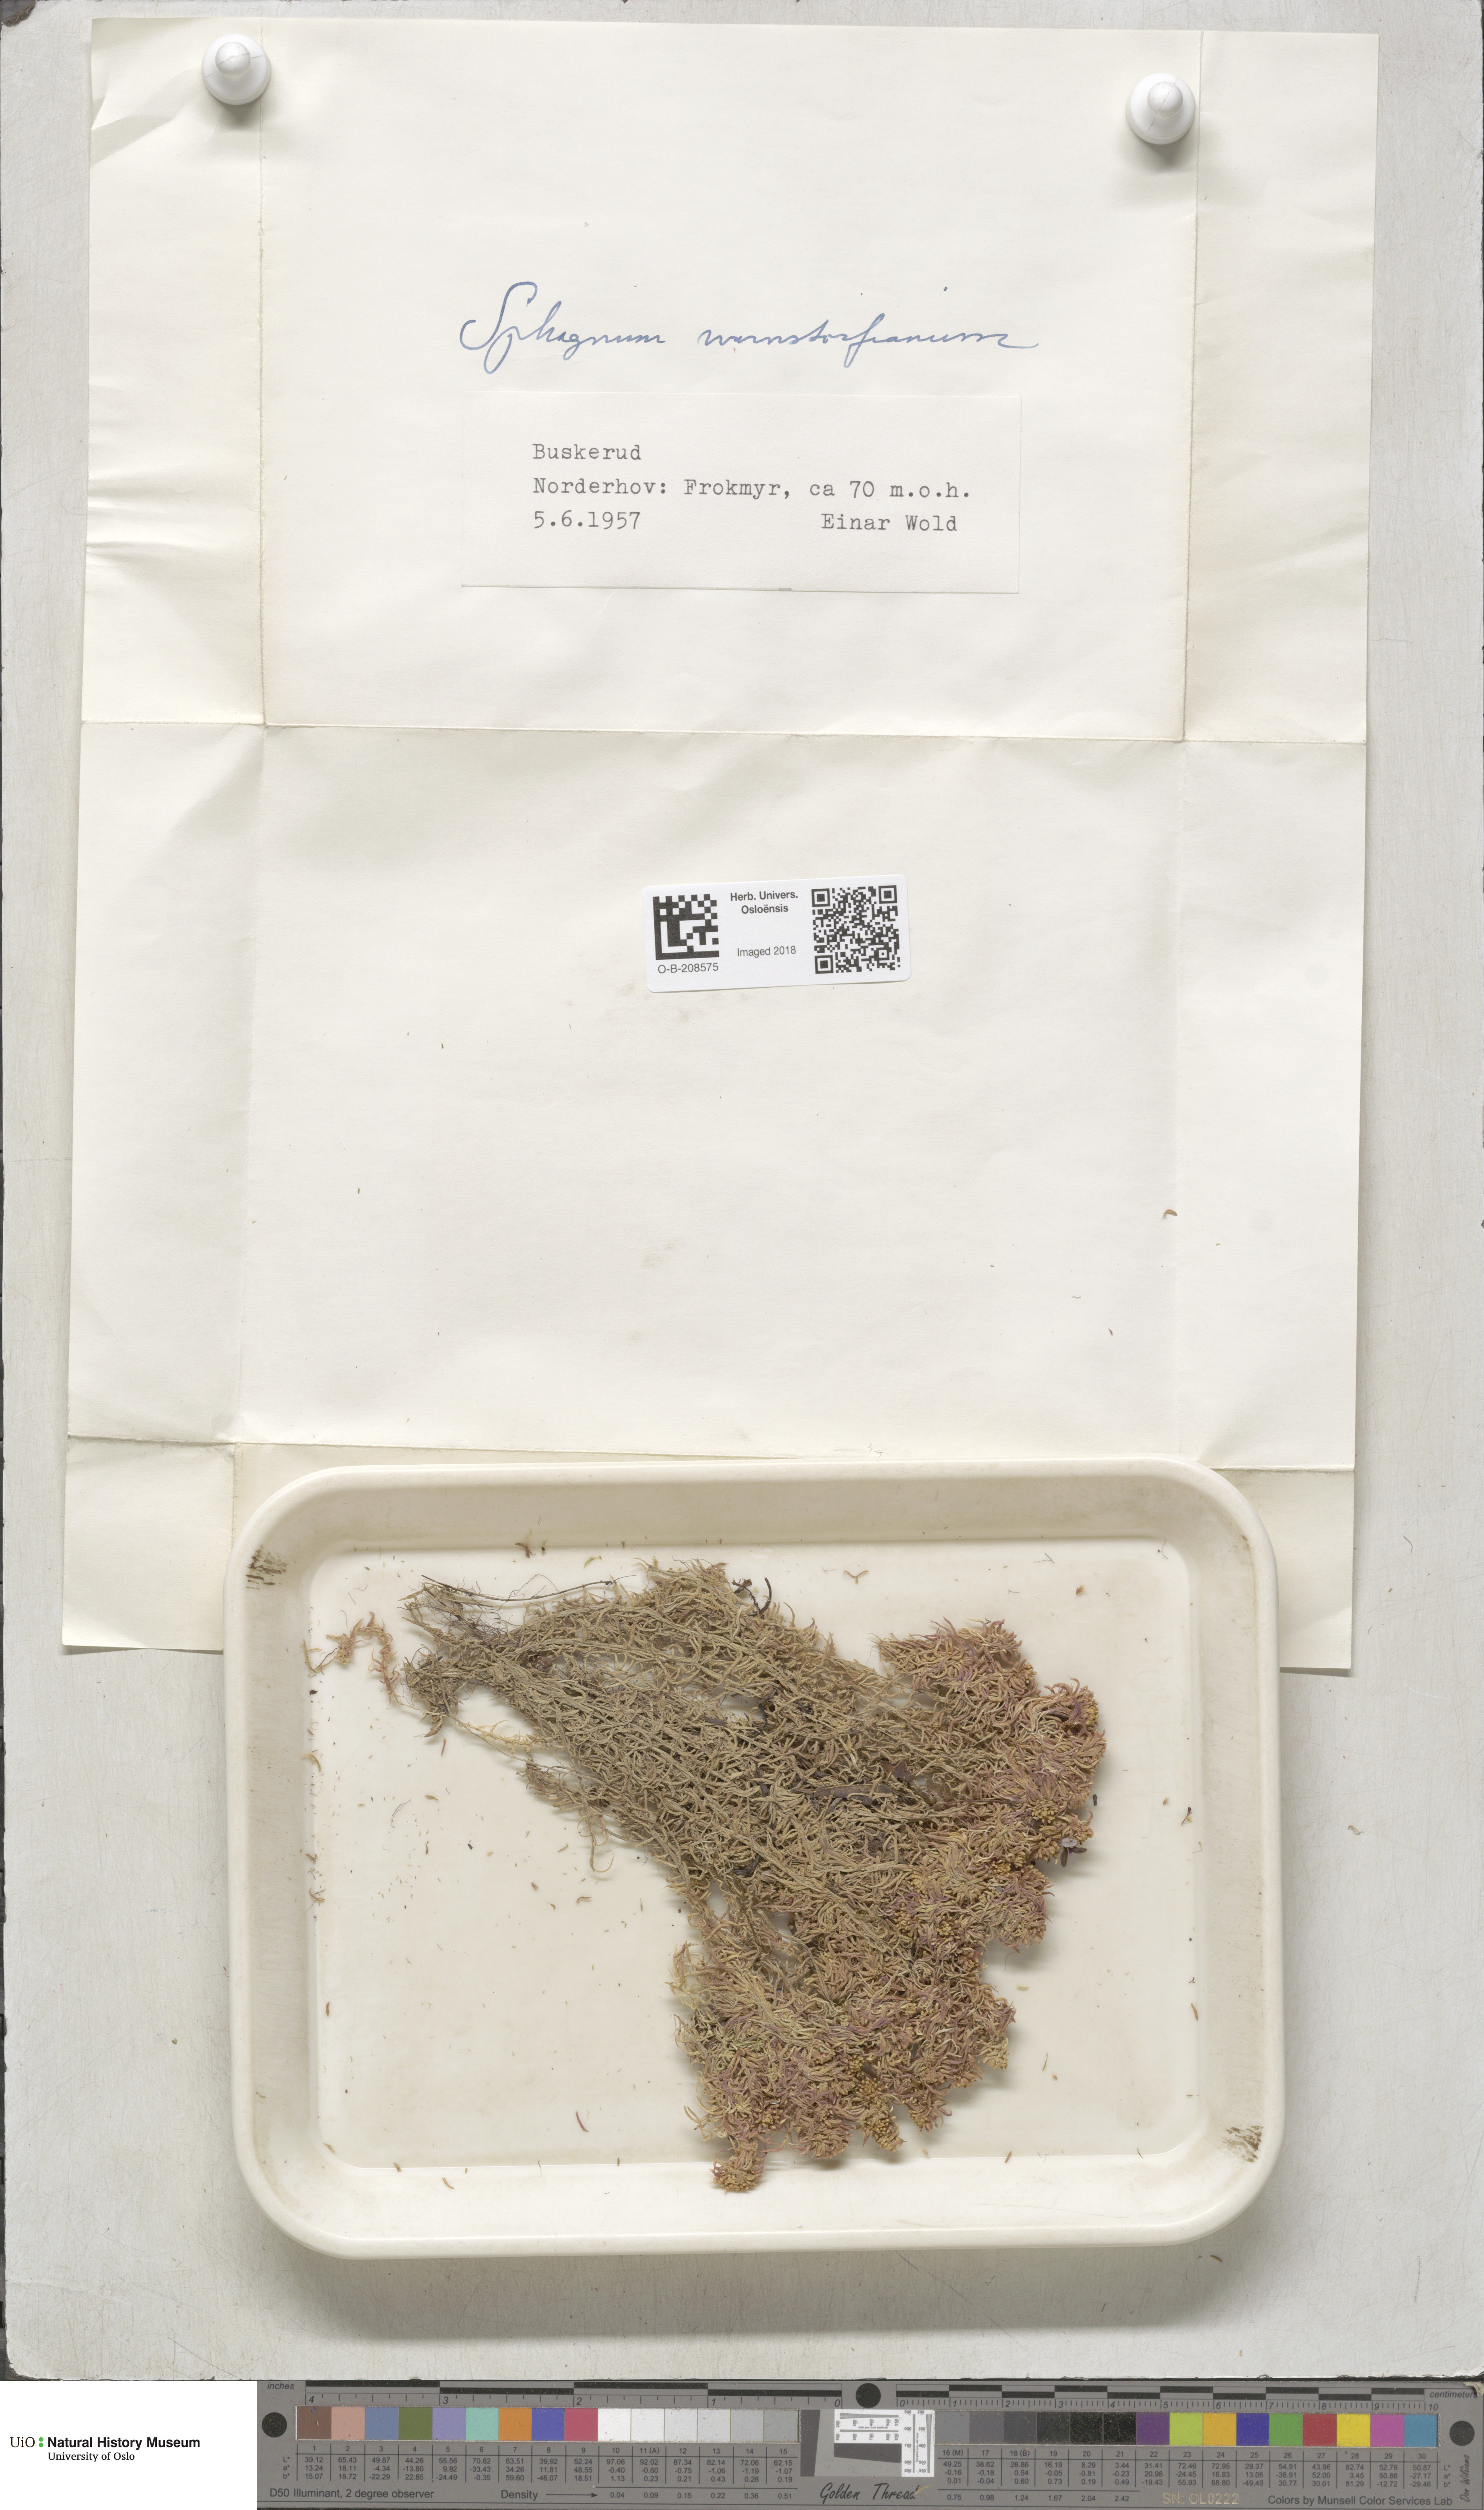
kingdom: Plantae
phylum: Bryophyta
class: Sphagnopsida
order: Sphagnales
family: Sphagnaceae
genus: Sphagnum
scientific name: Sphagnum warnstorfii
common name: Warnstorf's peat moss
